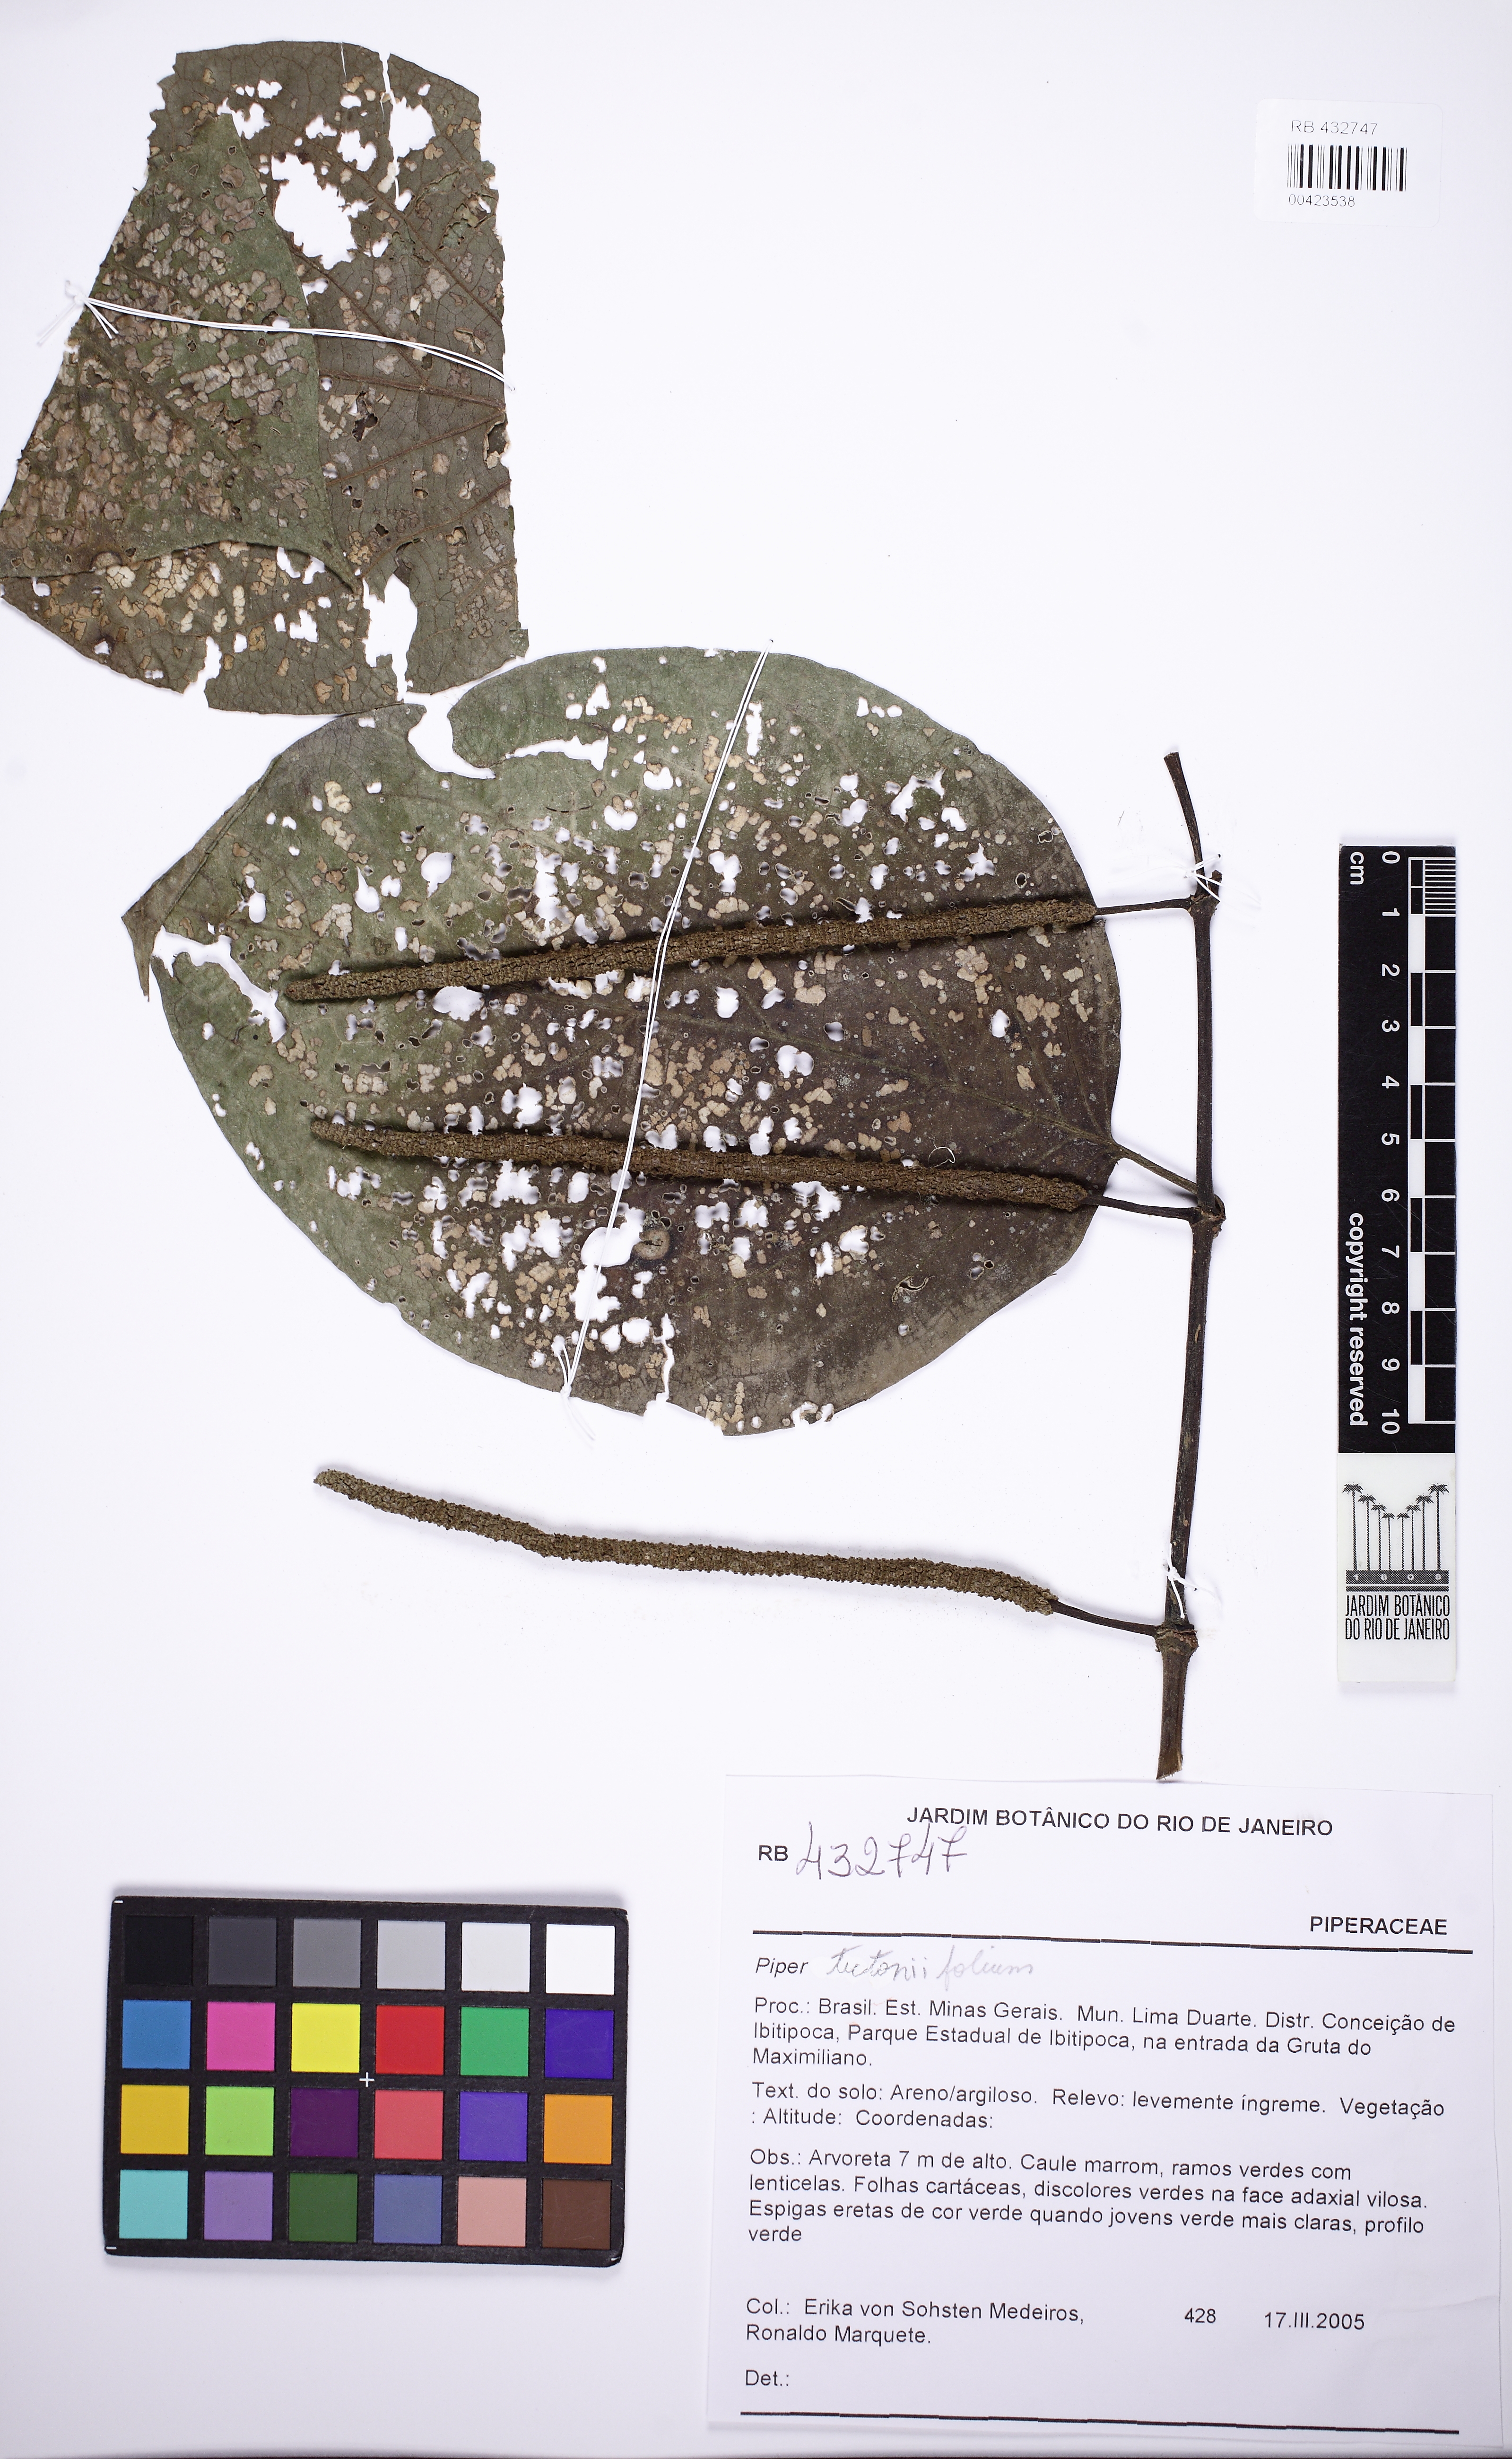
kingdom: Plantae
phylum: Tracheophyta
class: Magnoliopsida
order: Piperales
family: Piperaceae
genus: Piper
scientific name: Piper tectoniifolium
